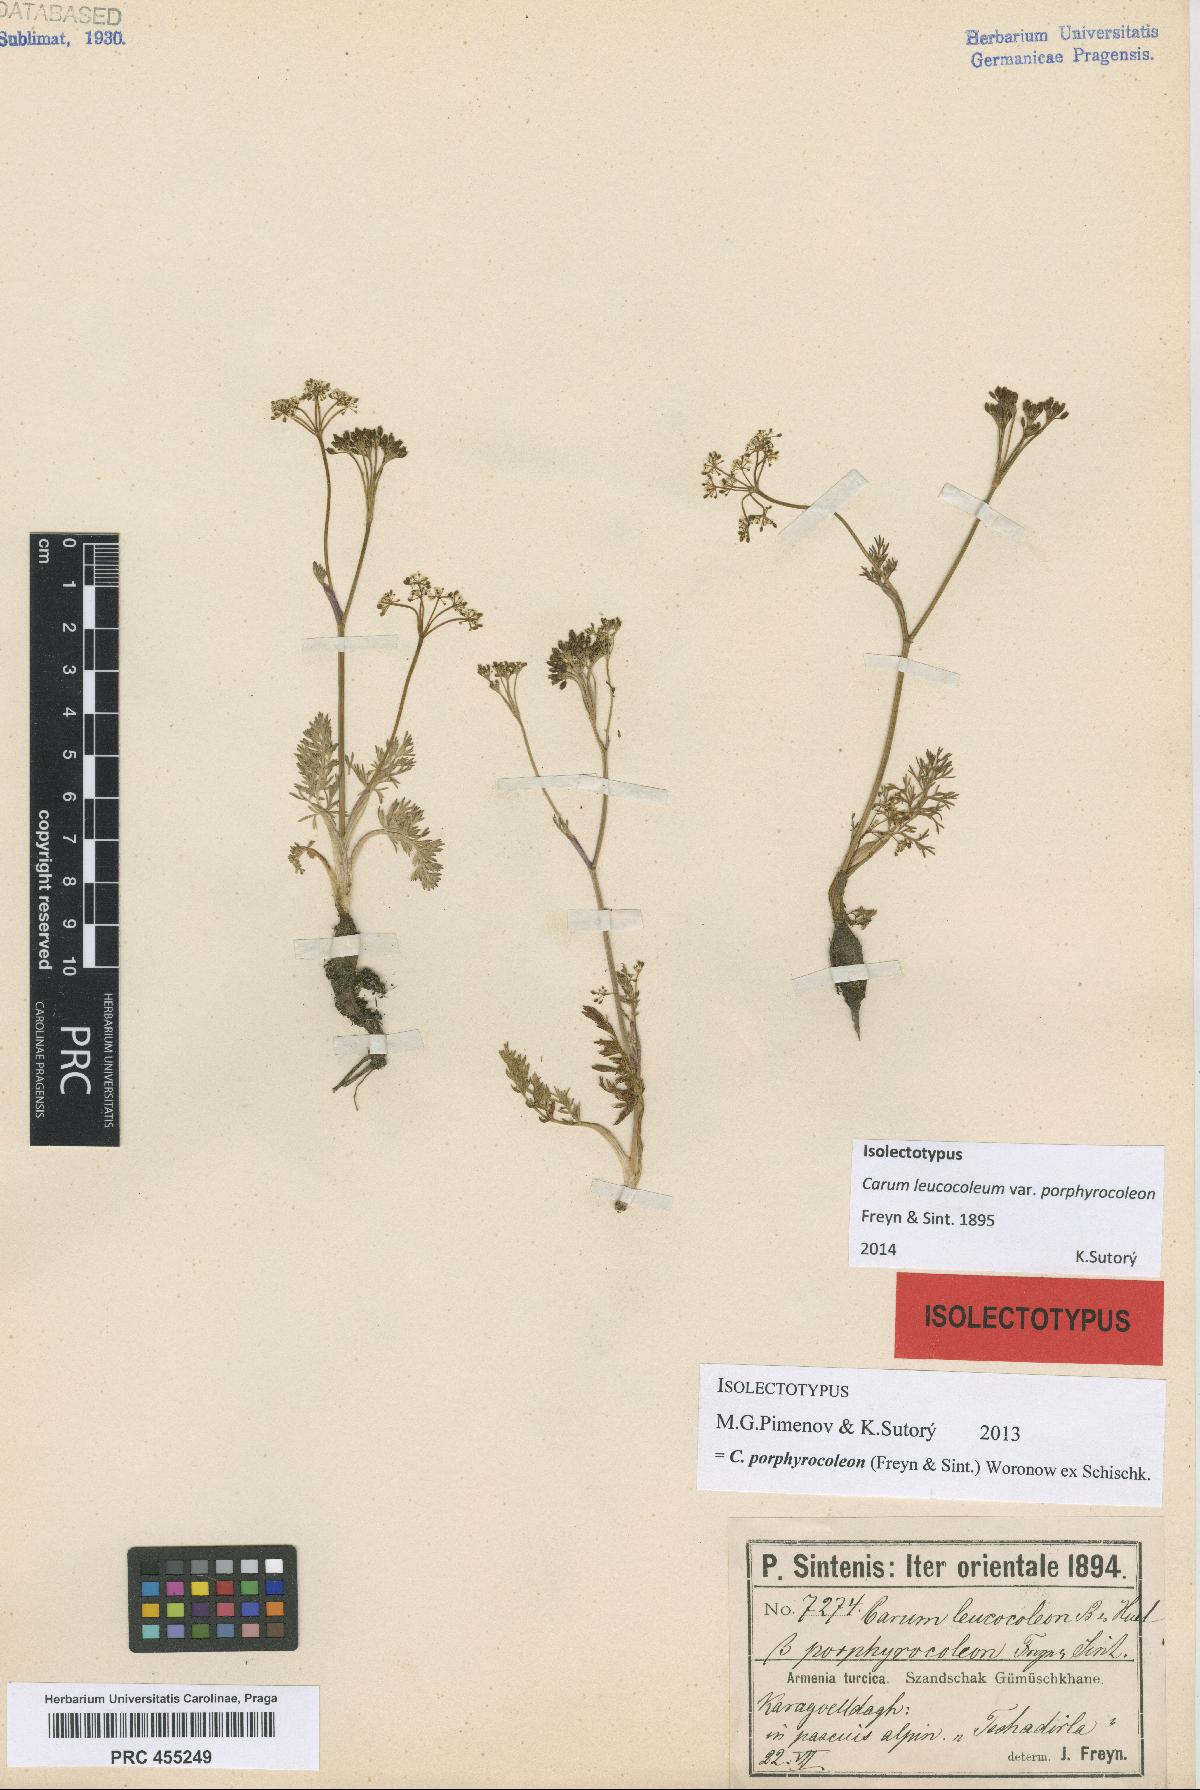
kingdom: Plantae
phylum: Tracheophyta
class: Magnoliopsida
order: Apiales
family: Apiaceae
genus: Carum
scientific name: Carum porphyrocoleon
